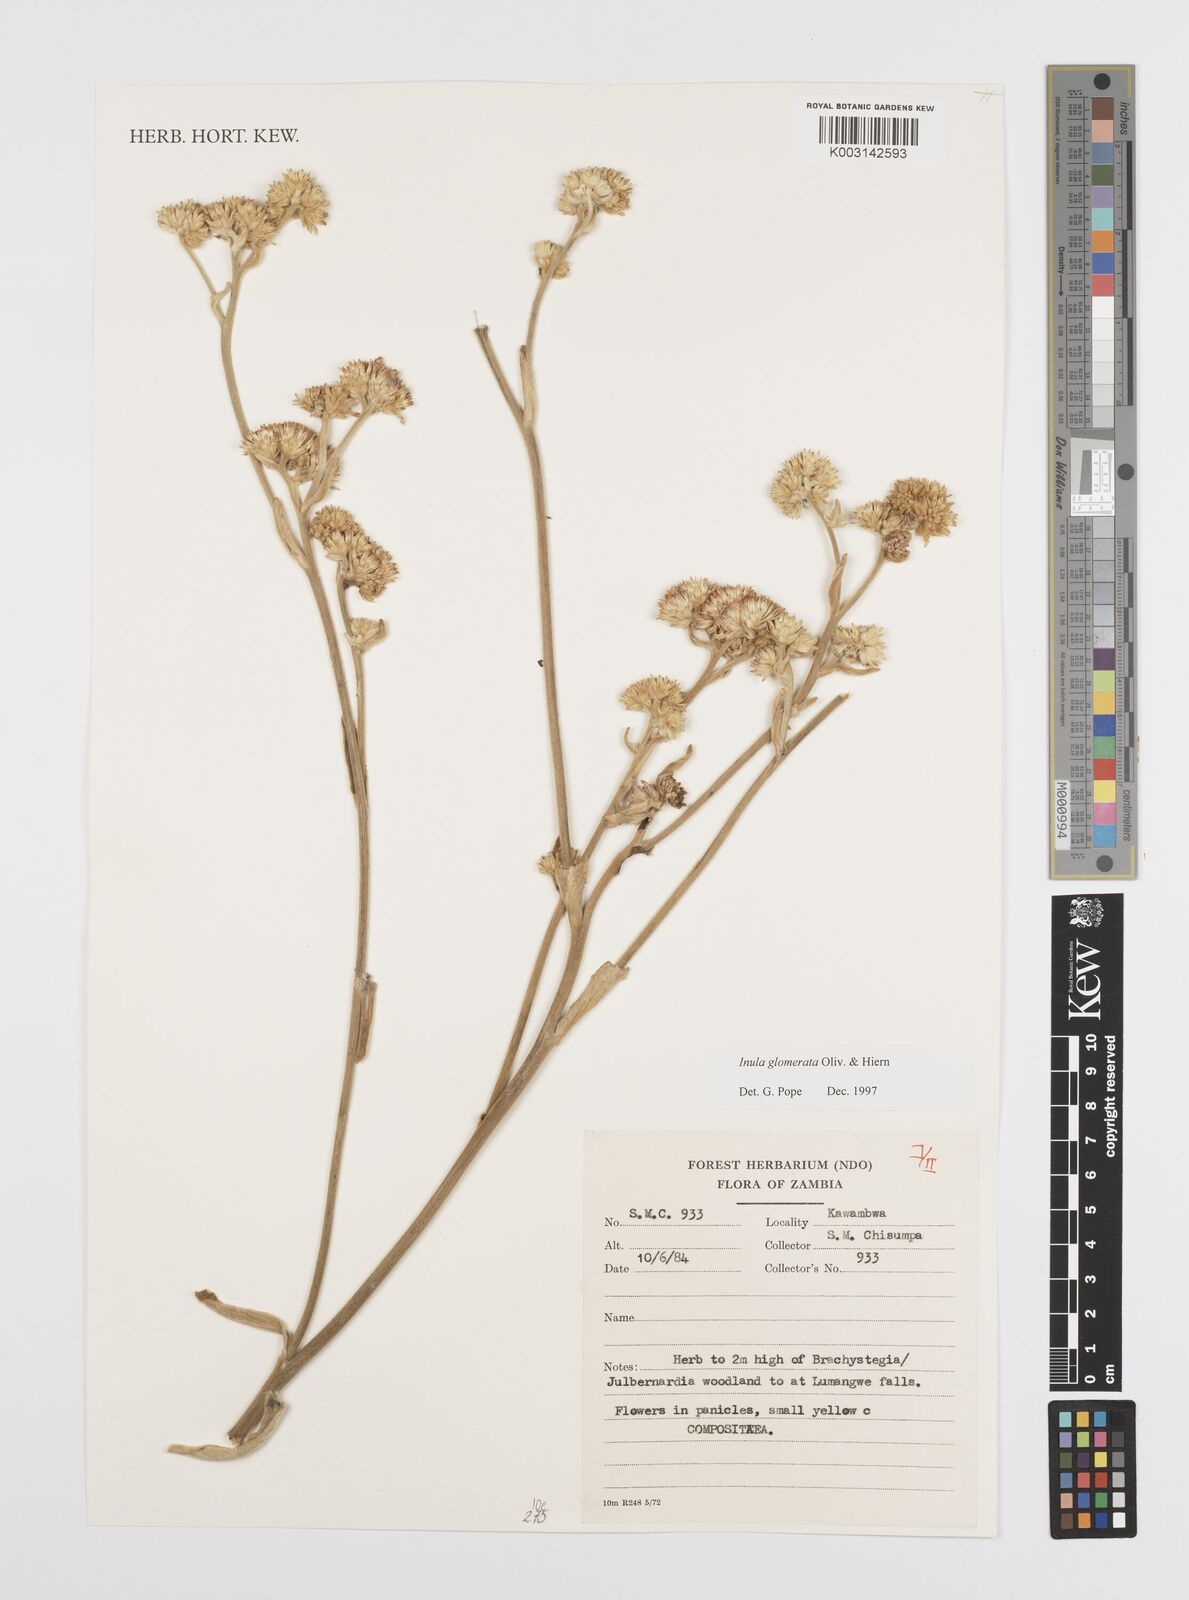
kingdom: Plantae
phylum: Tracheophyta
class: Magnoliopsida
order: Asterales
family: Asteraceae
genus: Inula
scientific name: Inula glomerata
